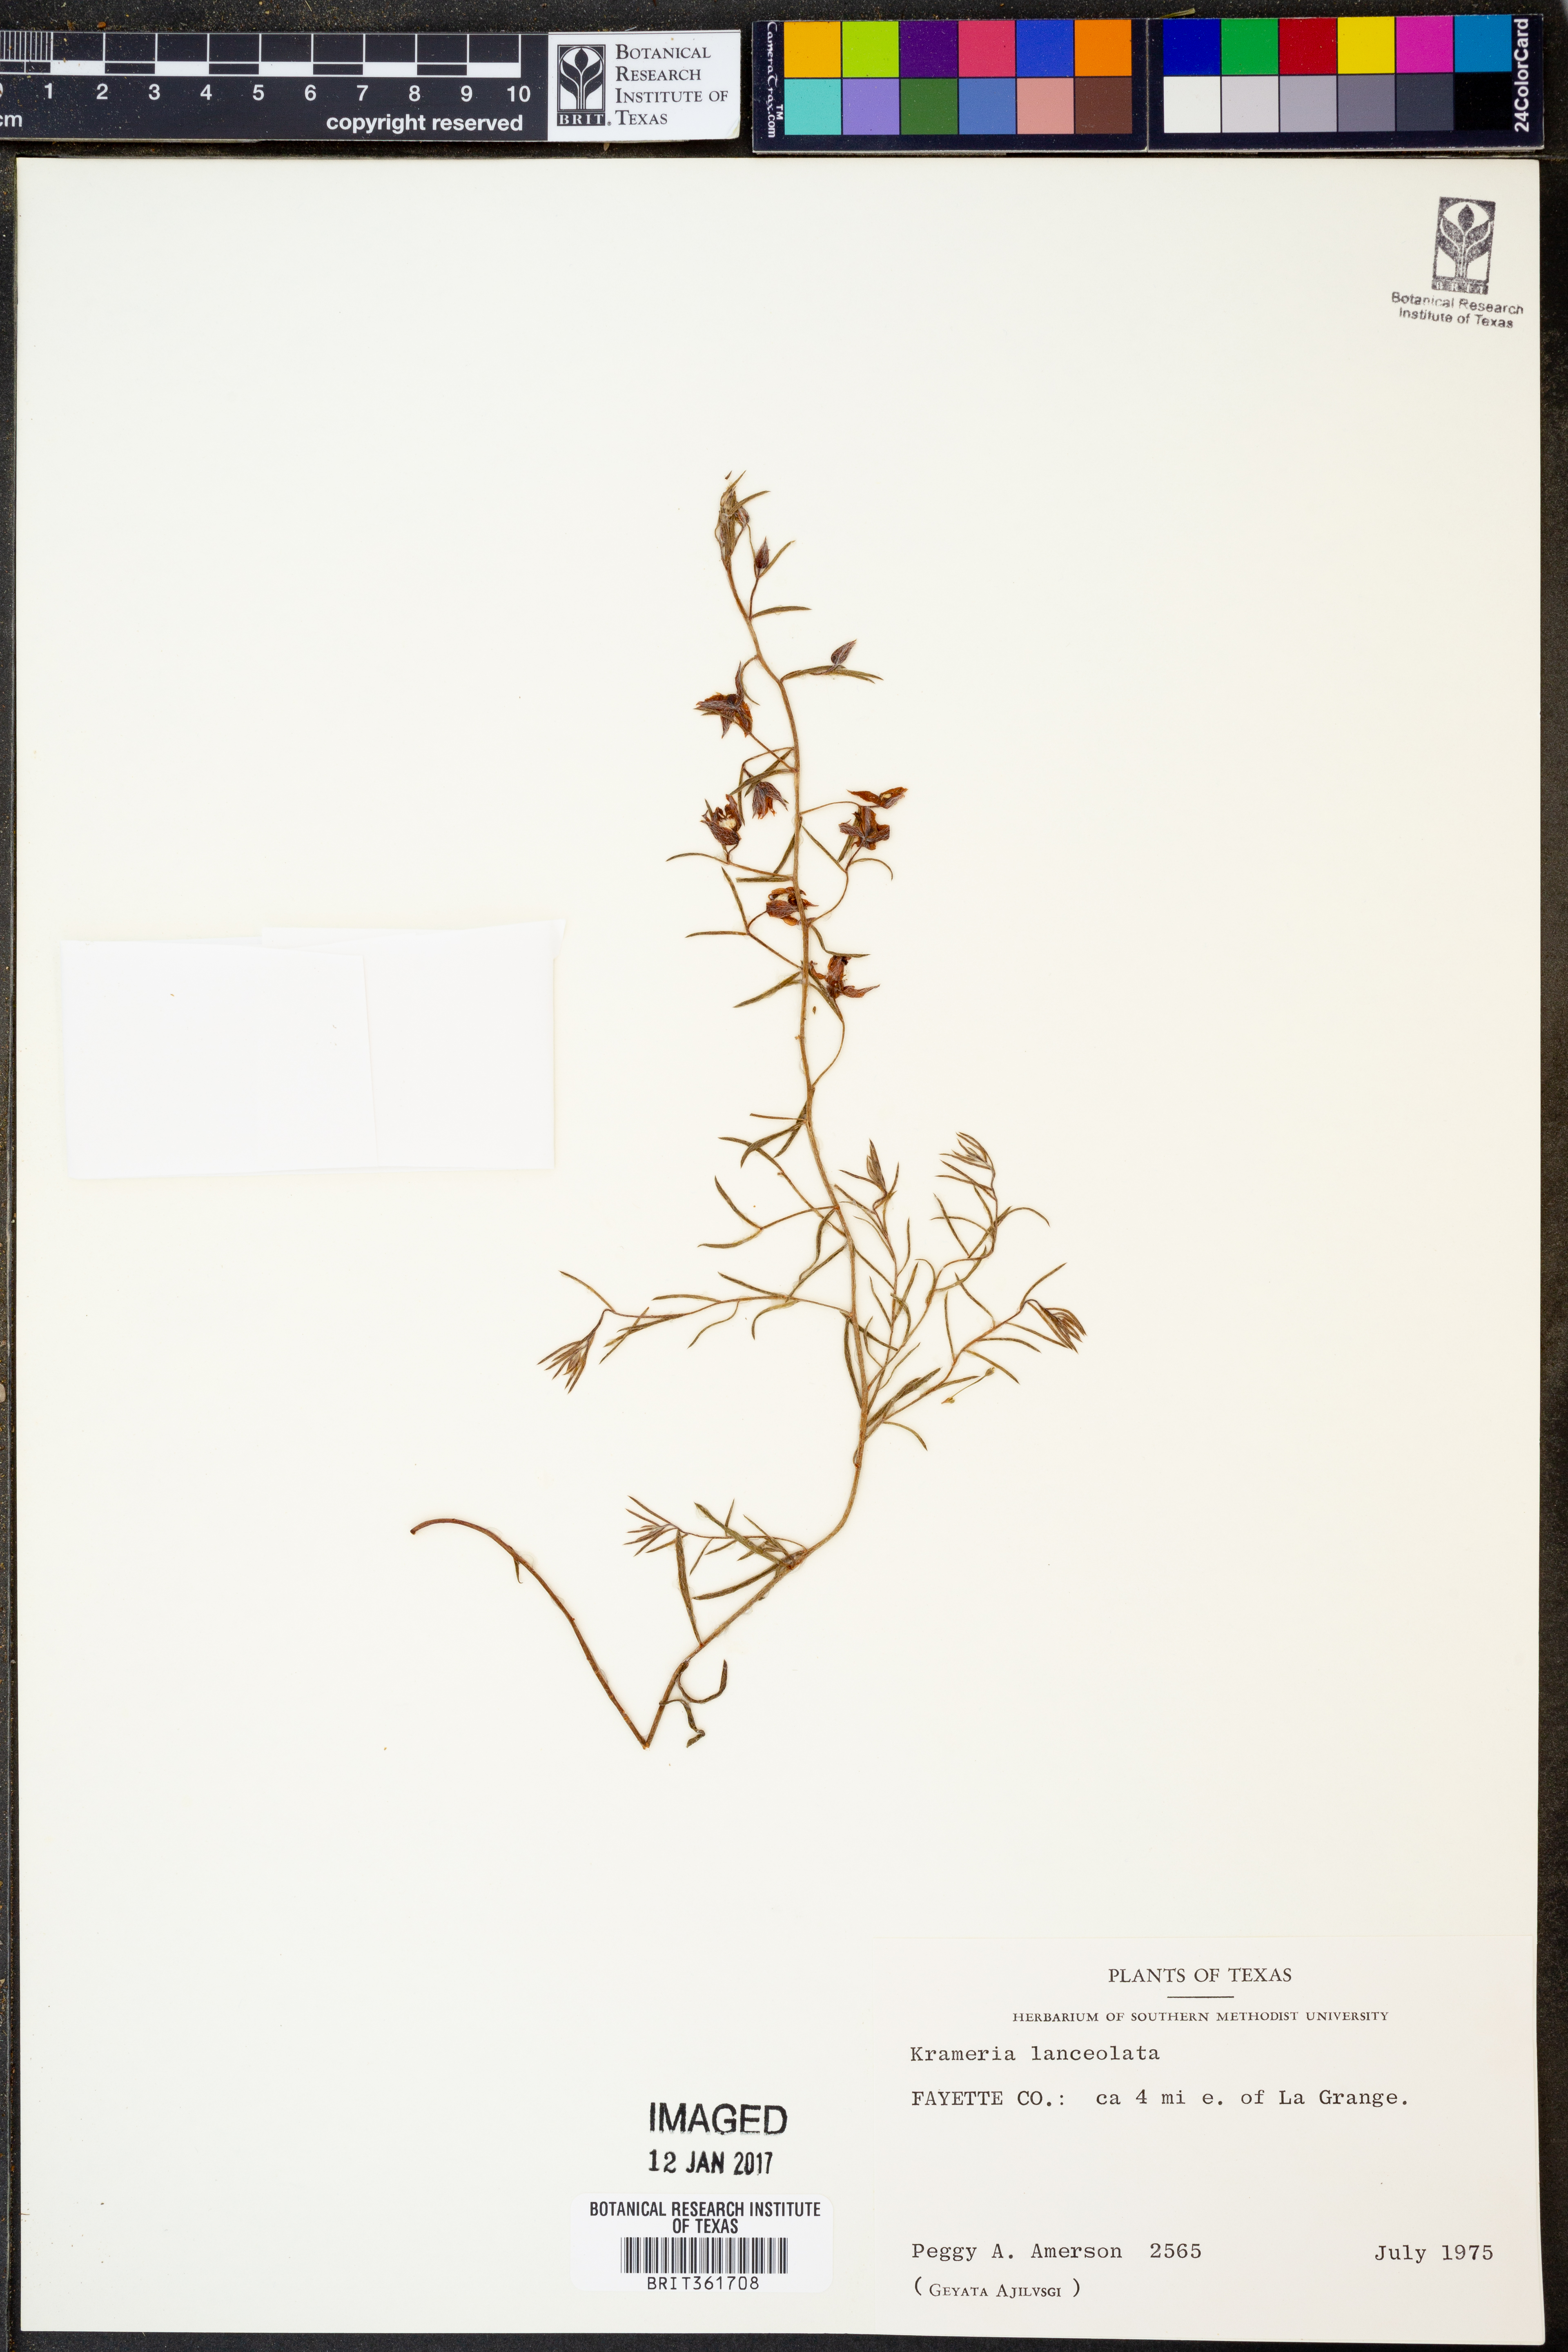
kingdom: Plantae
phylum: Tracheophyta
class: Magnoliopsida
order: Zygophyllales
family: Krameriaceae
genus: Krameria
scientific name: Krameria lanceolata
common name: Ratany
